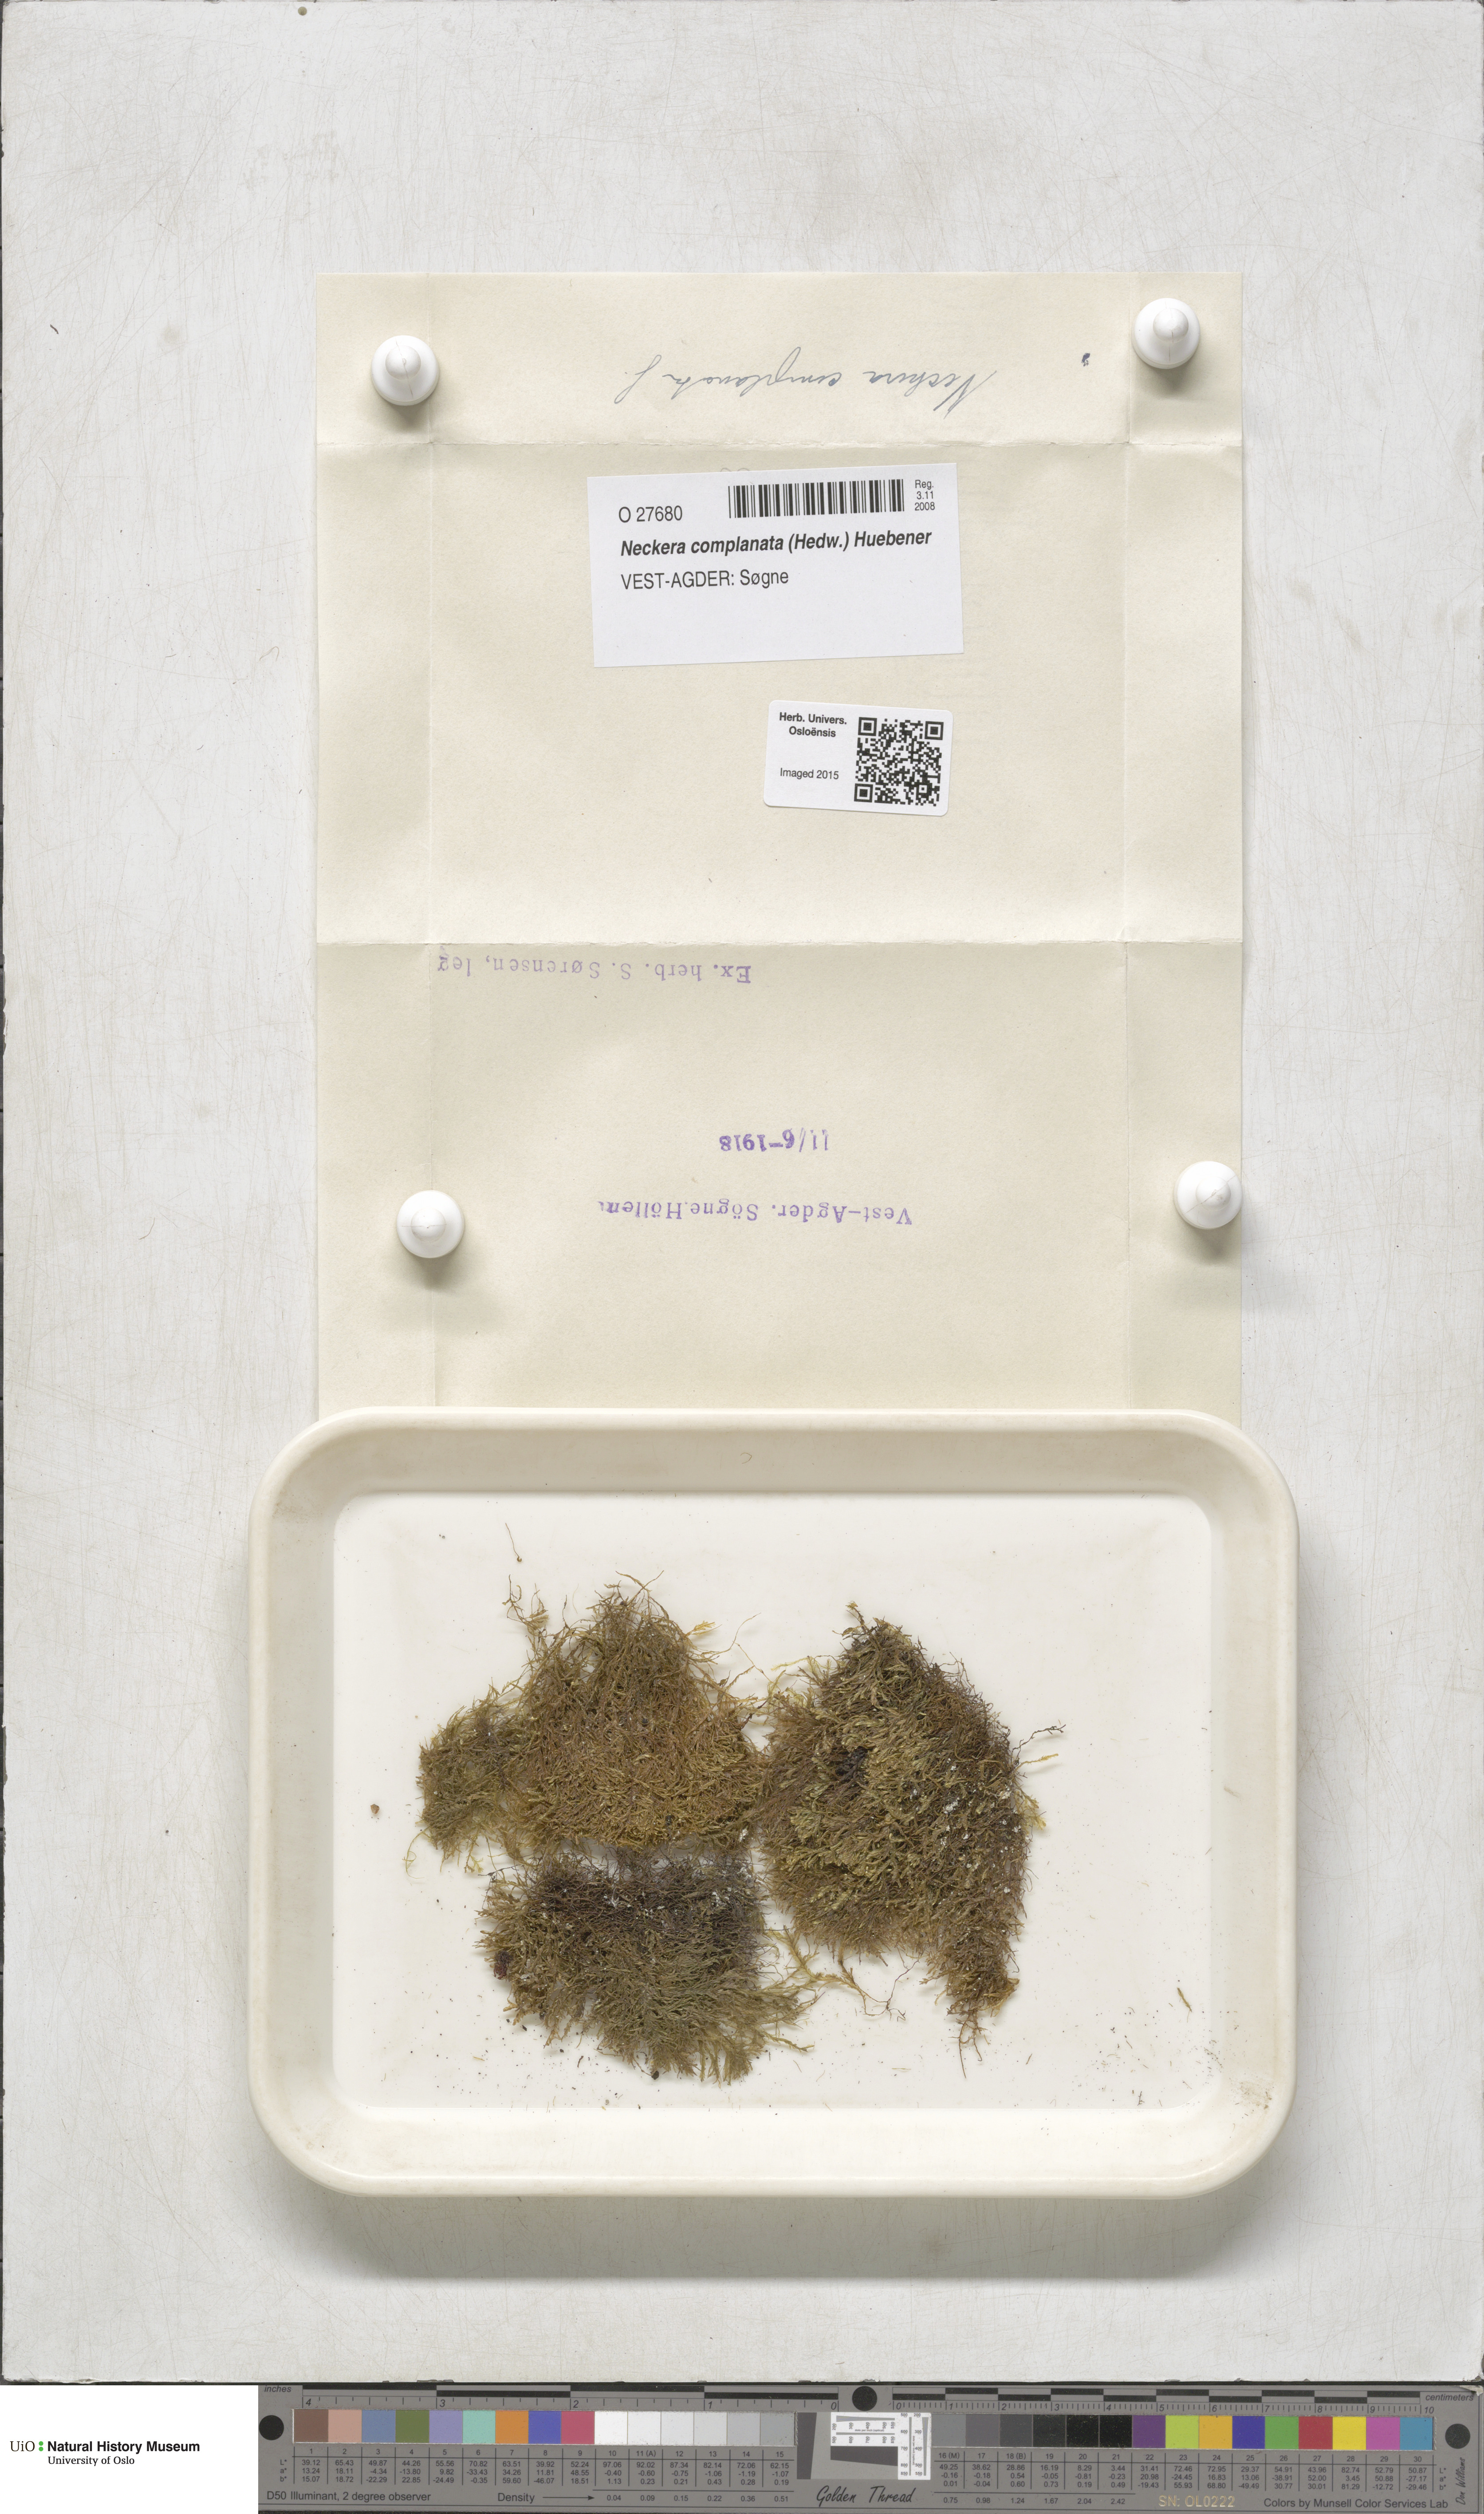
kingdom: Plantae
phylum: Bryophyta
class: Bryopsida
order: Hypnales
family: Neckeraceae
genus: Alleniella
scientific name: Alleniella complanata
